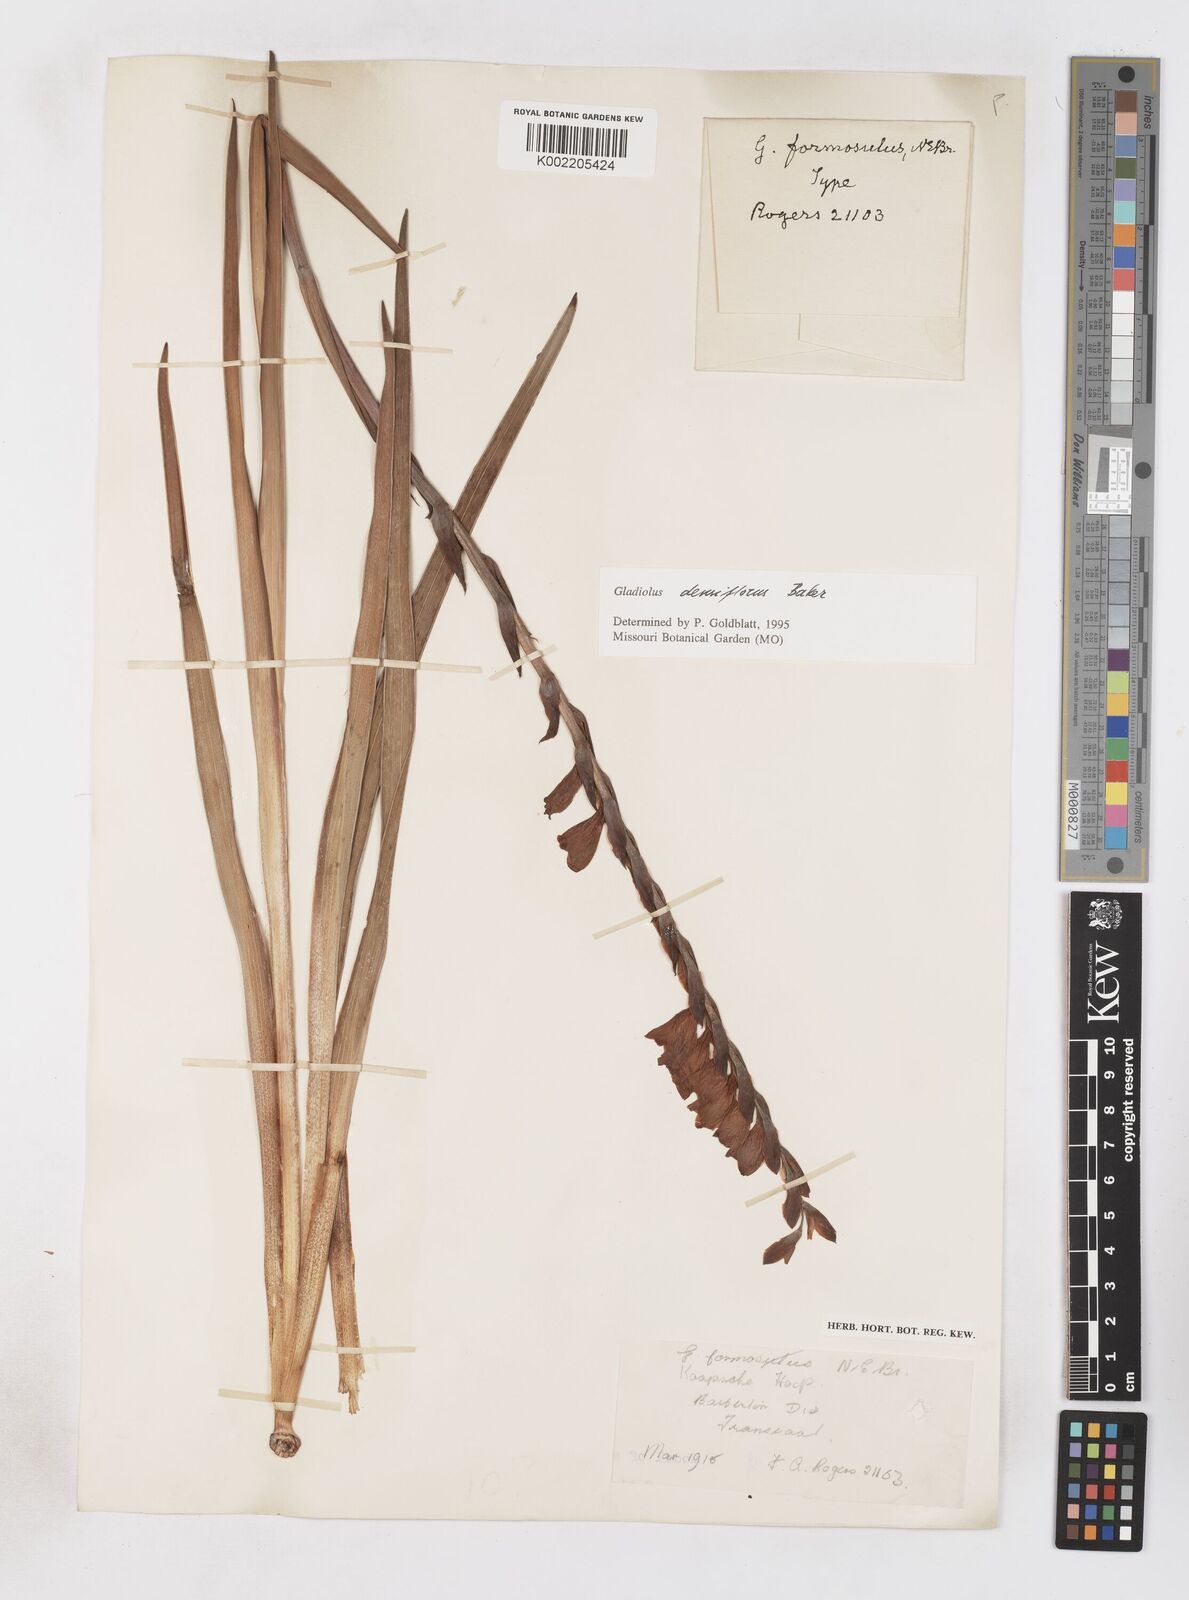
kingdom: Plantae
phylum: Tracheophyta
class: Liliopsida
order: Asparagales
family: Iridaceae
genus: Gladiolus
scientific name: Gladiolus densiflorus
